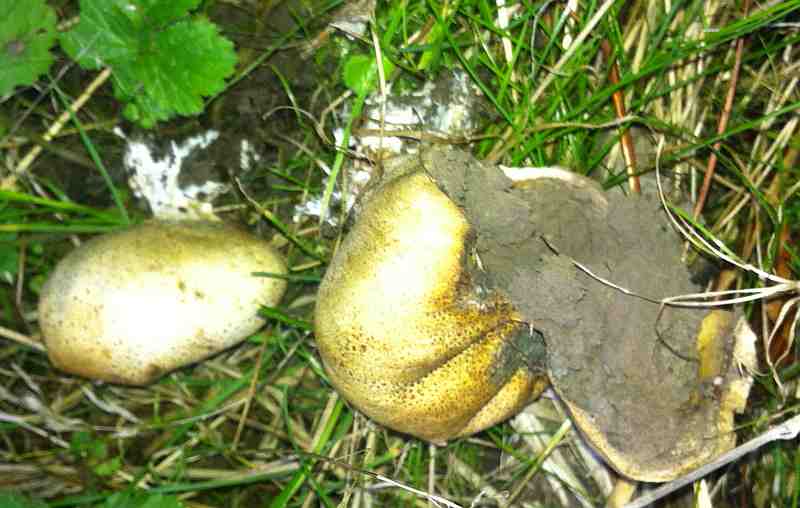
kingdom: Fungi
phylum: Basidiomycota
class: Agaricomycetes
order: Boletales
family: Sclerodermataceae
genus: Scleroderma
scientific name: Scleroderma verrucosum
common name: stilket bruskbold
